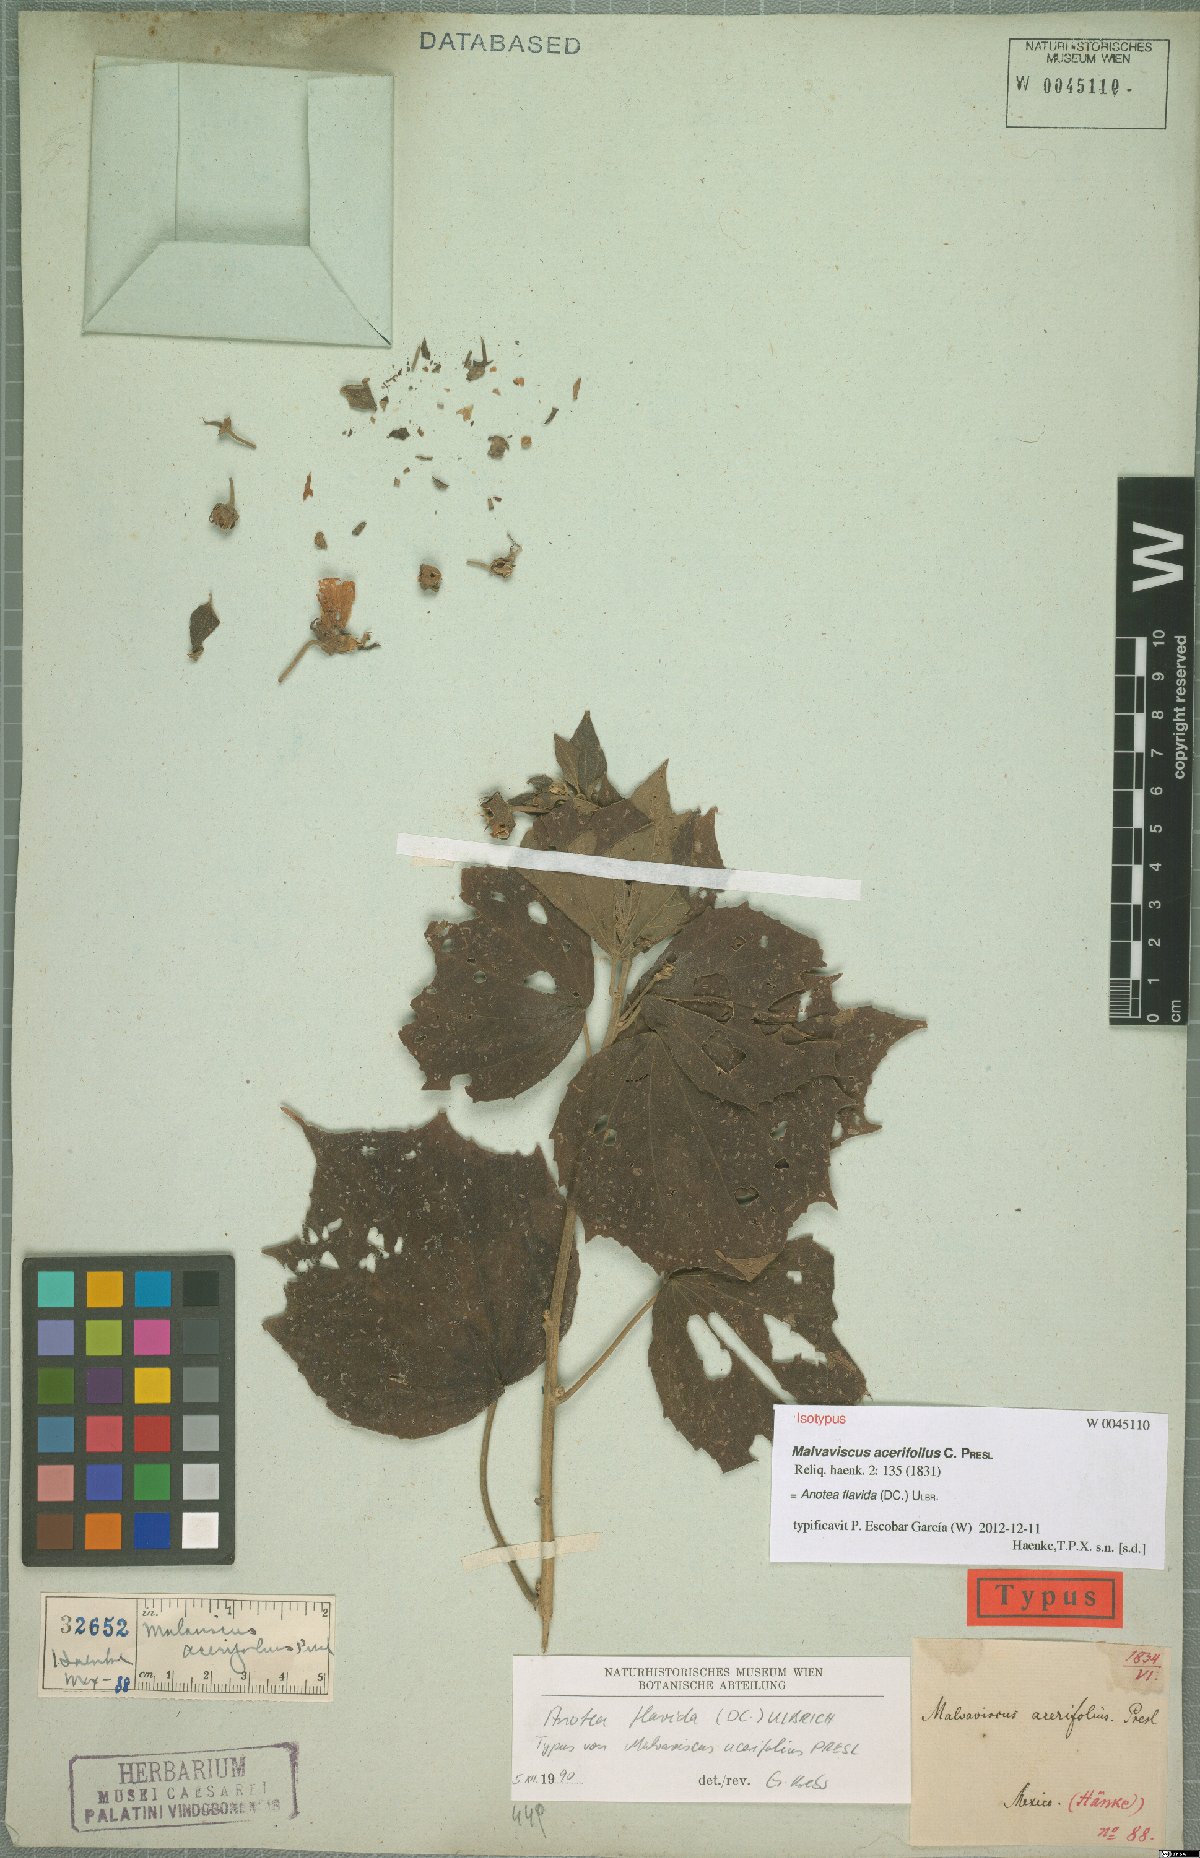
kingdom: Plantae
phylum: Tracheophyta
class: Magnoliopsida
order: Malvales
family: Malvaceae
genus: Anotea
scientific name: Anotea flavida
